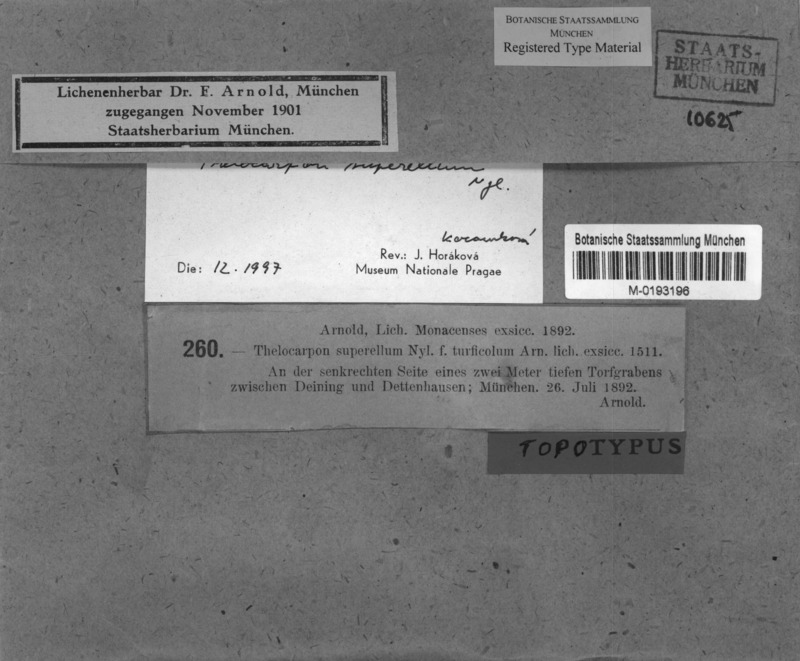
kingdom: Fungi
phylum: Ascomycota
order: Thelocarpales
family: Thelocarpaceae
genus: Thelocarpon
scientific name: Thelocarpon superellum
